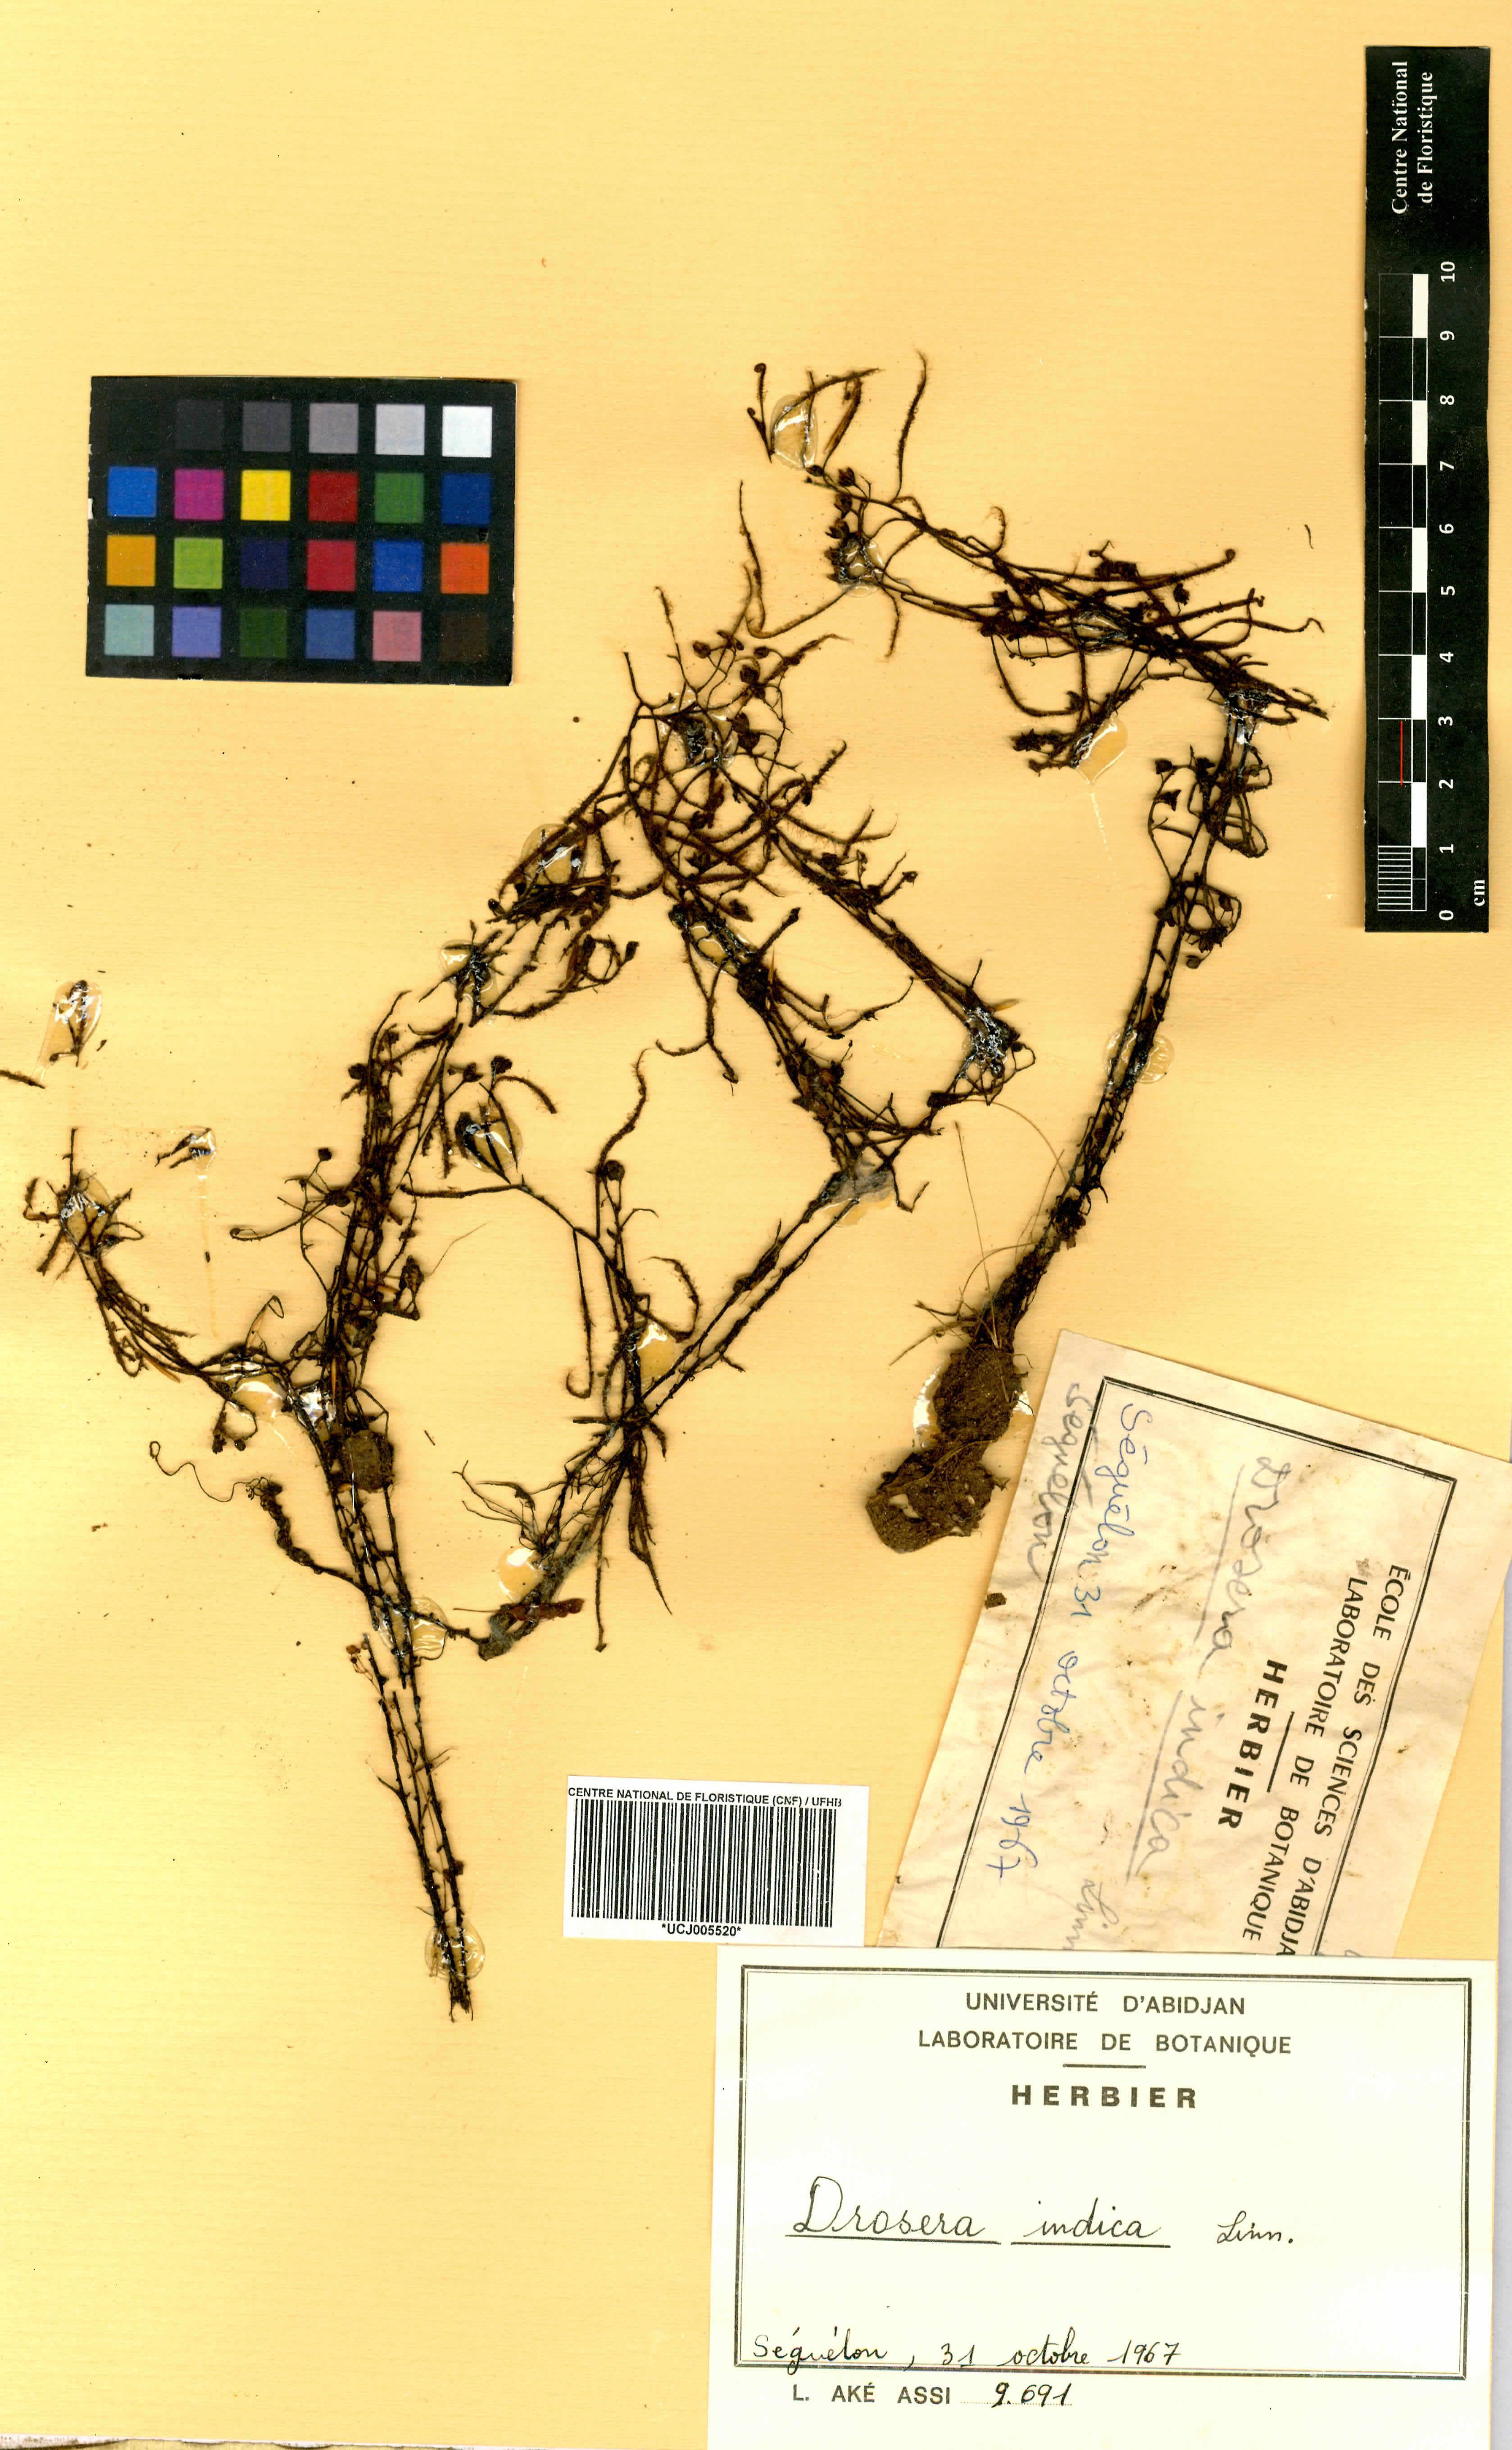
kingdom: Plantae
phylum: Tracheophyta
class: Magnoliopsida
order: Caryophyllales
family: Droseraceae
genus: Drosera
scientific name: Drosera indica
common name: Indian sundew
